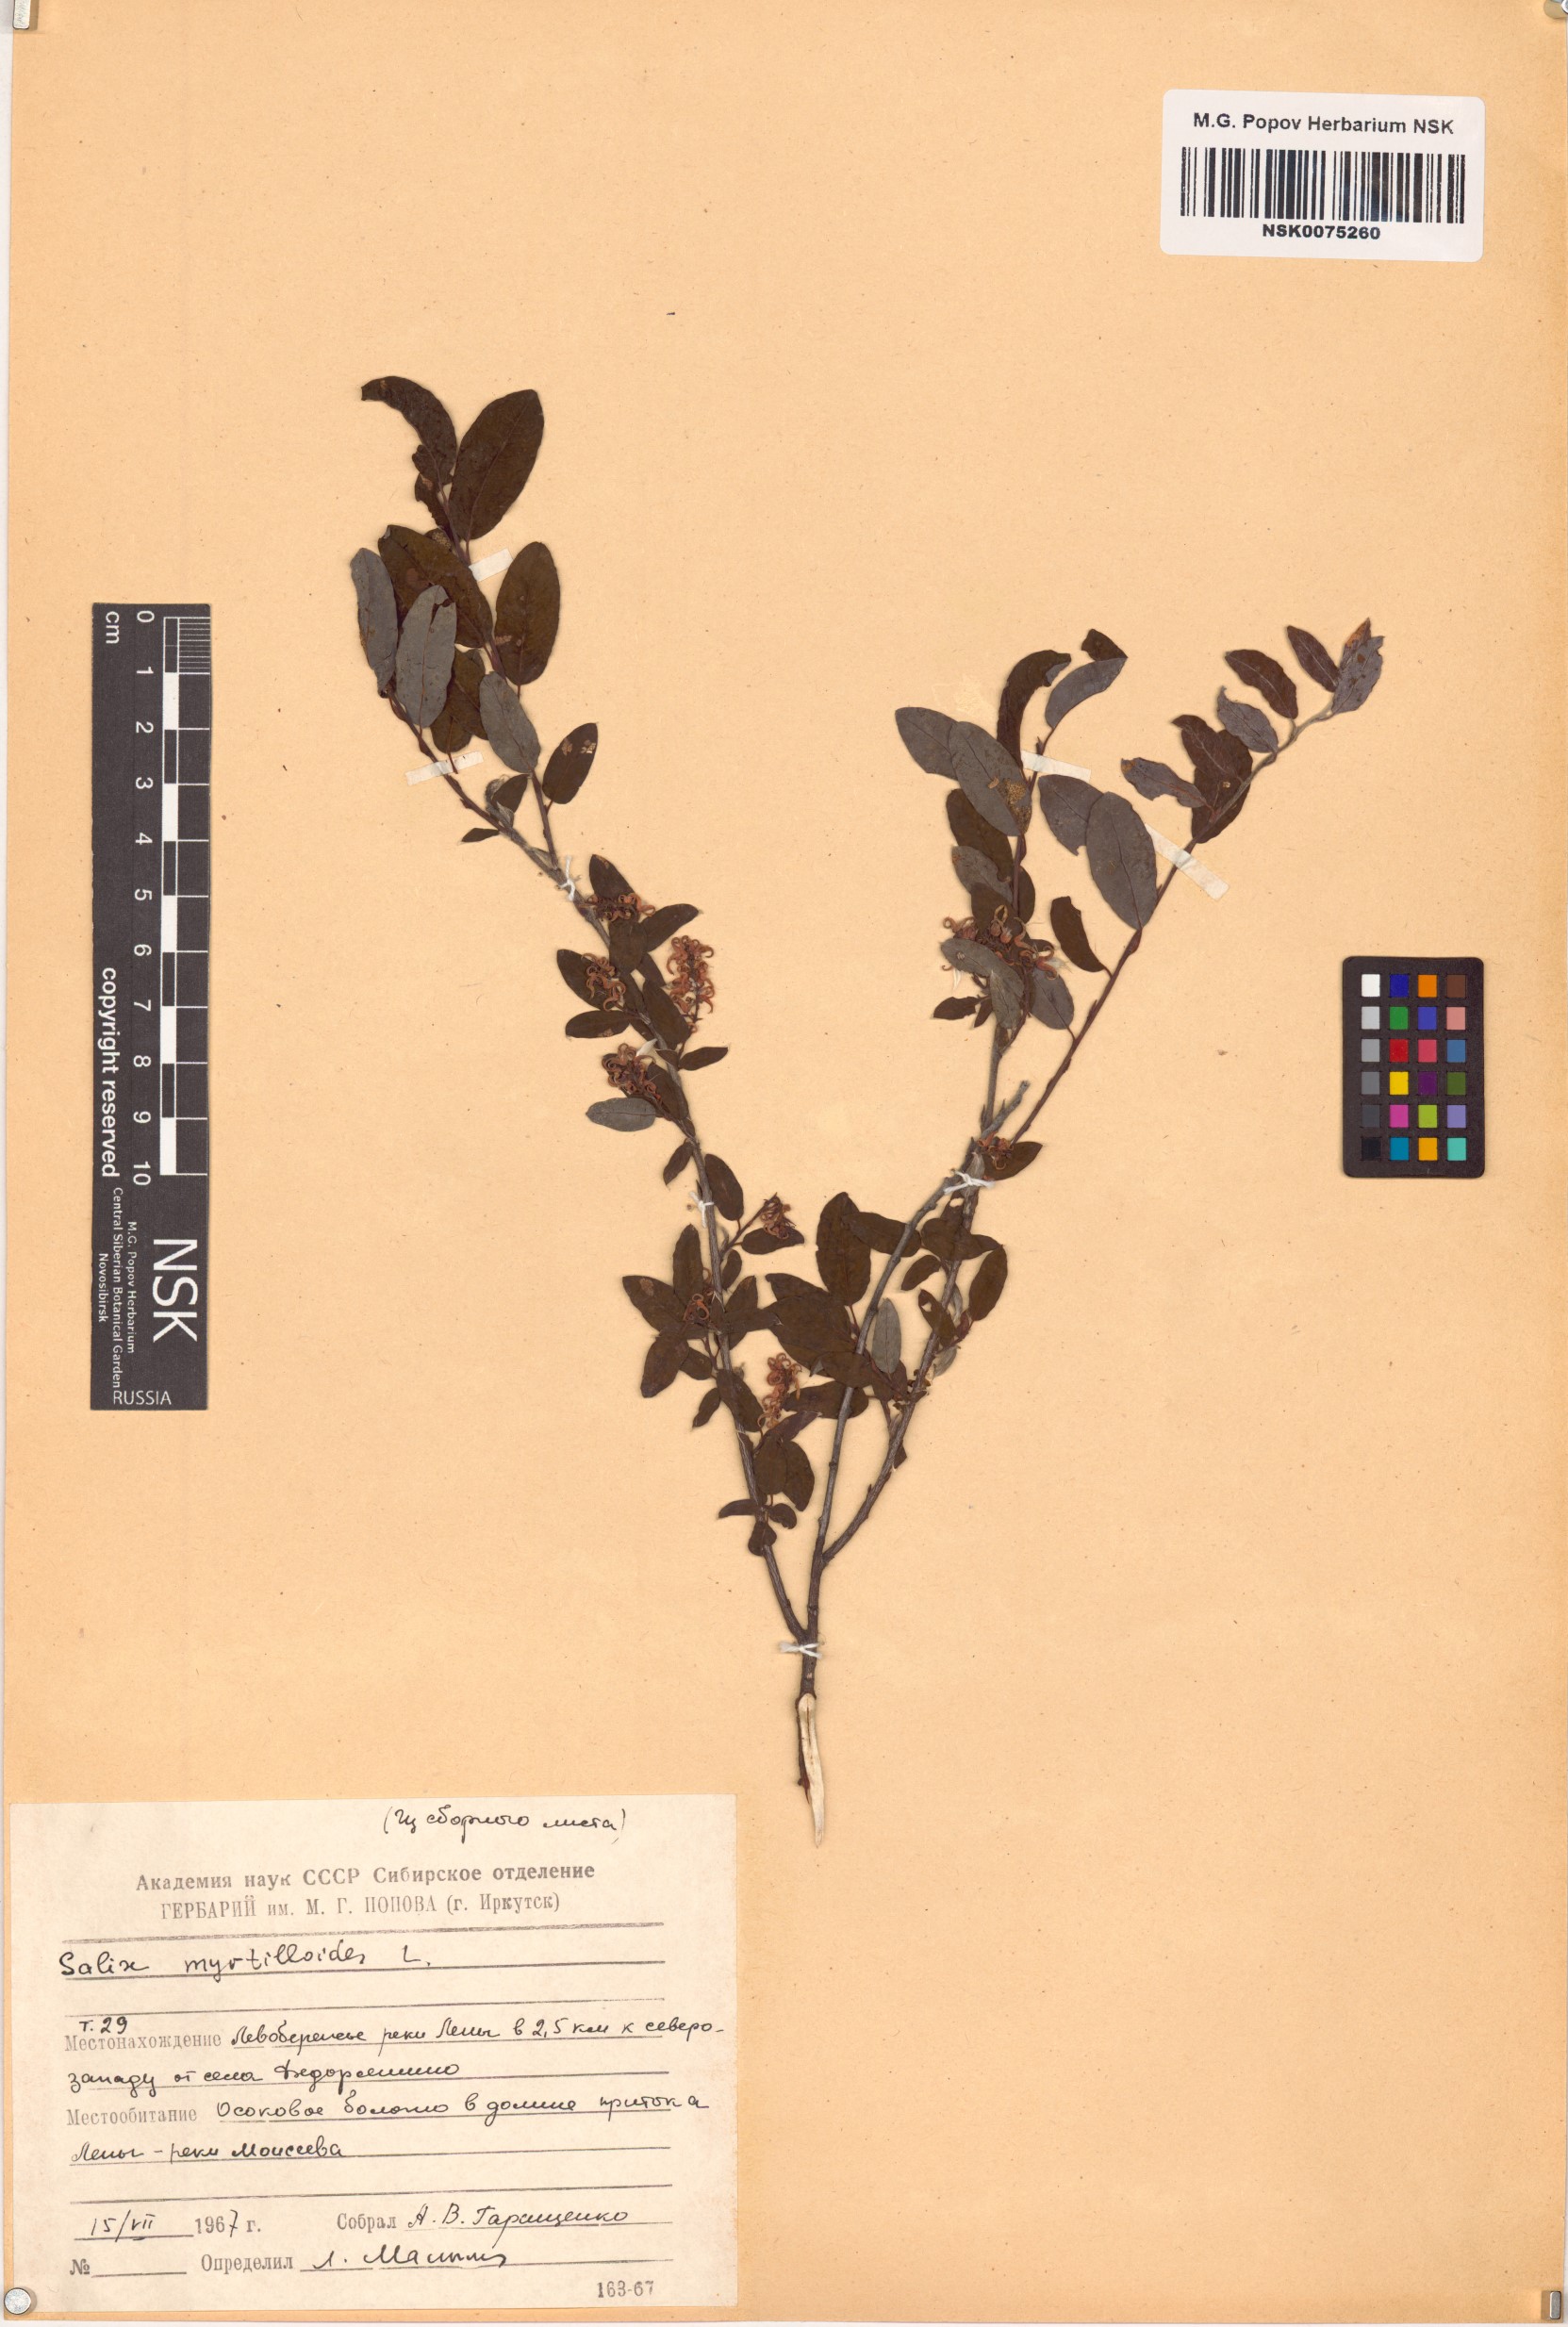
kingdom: Plantae
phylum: Tracheophyta
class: Magnoliopsida
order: Malpighiales
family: Salicaceae
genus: Salix
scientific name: Salix myrtilloides
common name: Myrtle-leaved willow
